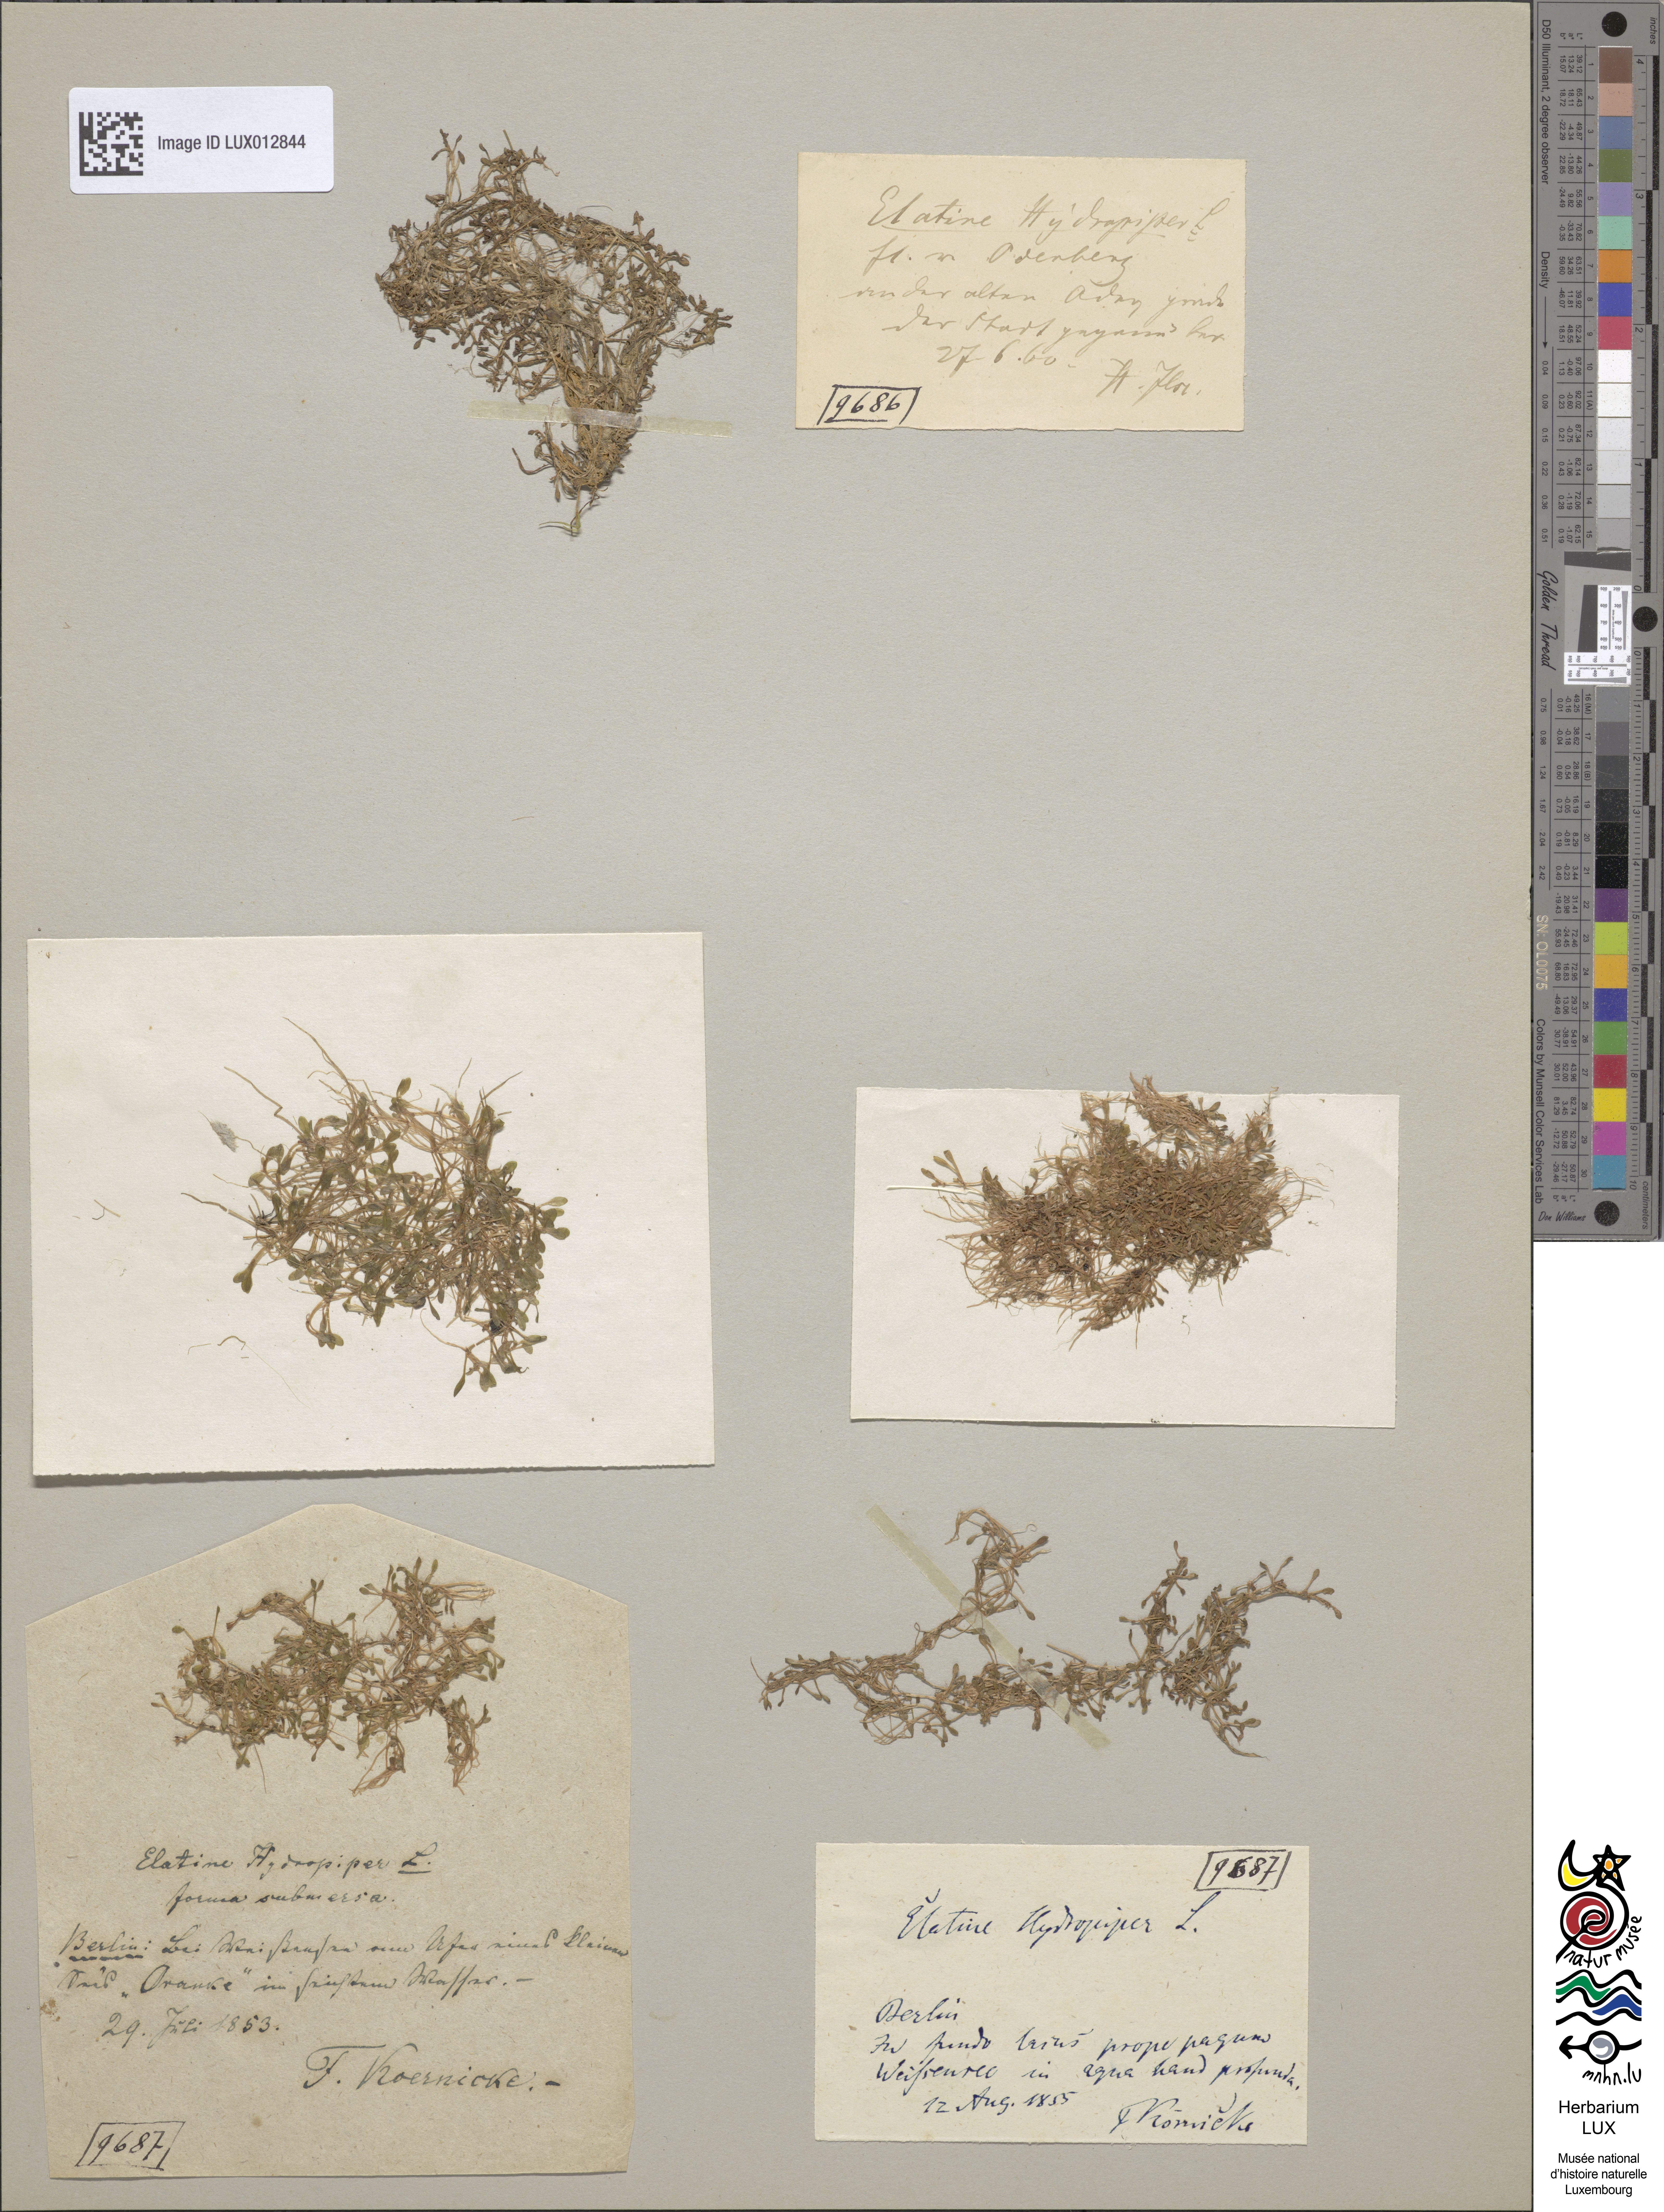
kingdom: Plantae
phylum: Tracheophyta
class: Magnoliopsida
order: Malpighiales
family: Elatinaceae
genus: Elatine
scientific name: Elatine hydropiper
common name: Eight-stamened waterwort
